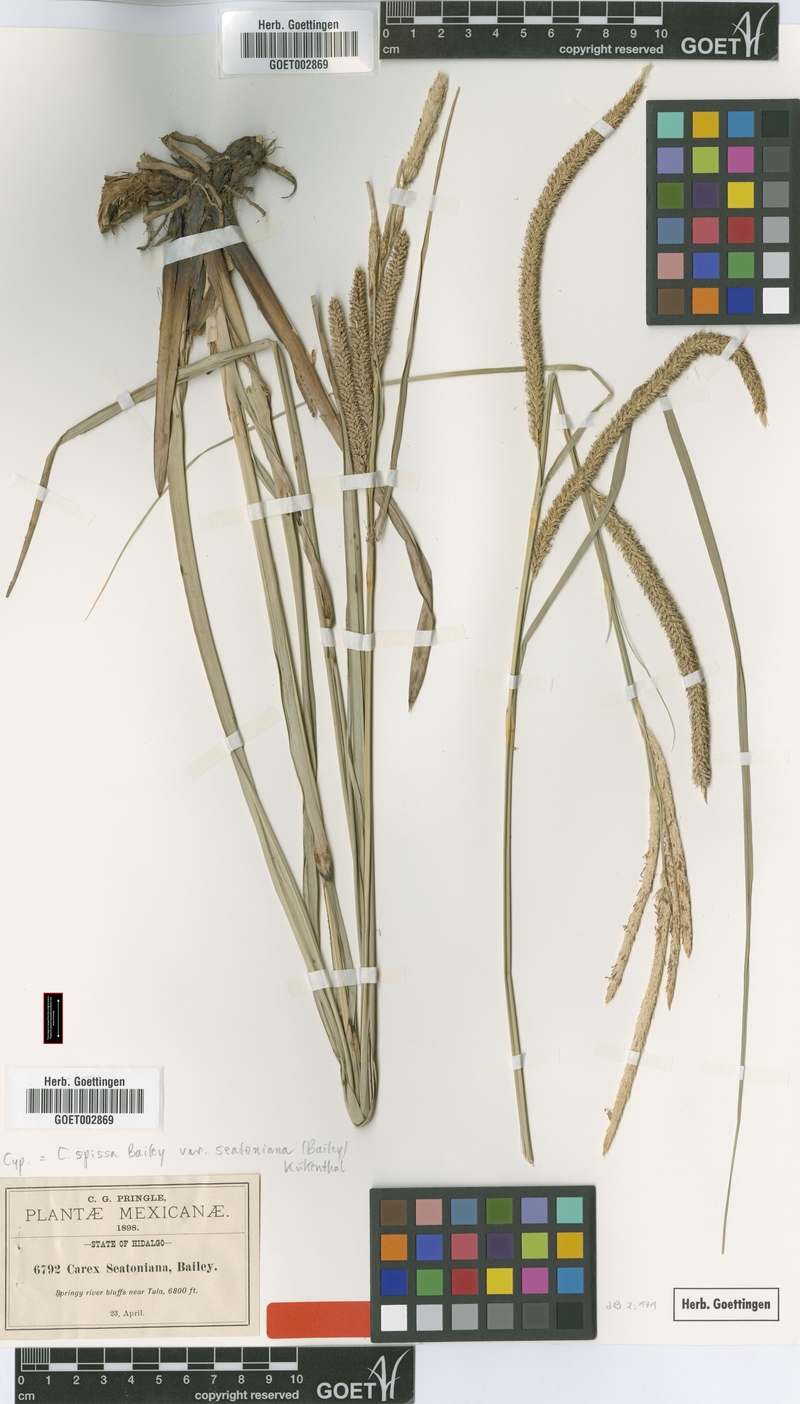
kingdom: Plantae
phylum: Tracheophyta
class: Liliopsida
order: Poales
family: Cyperaceae
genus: Carex
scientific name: Carex spissa
